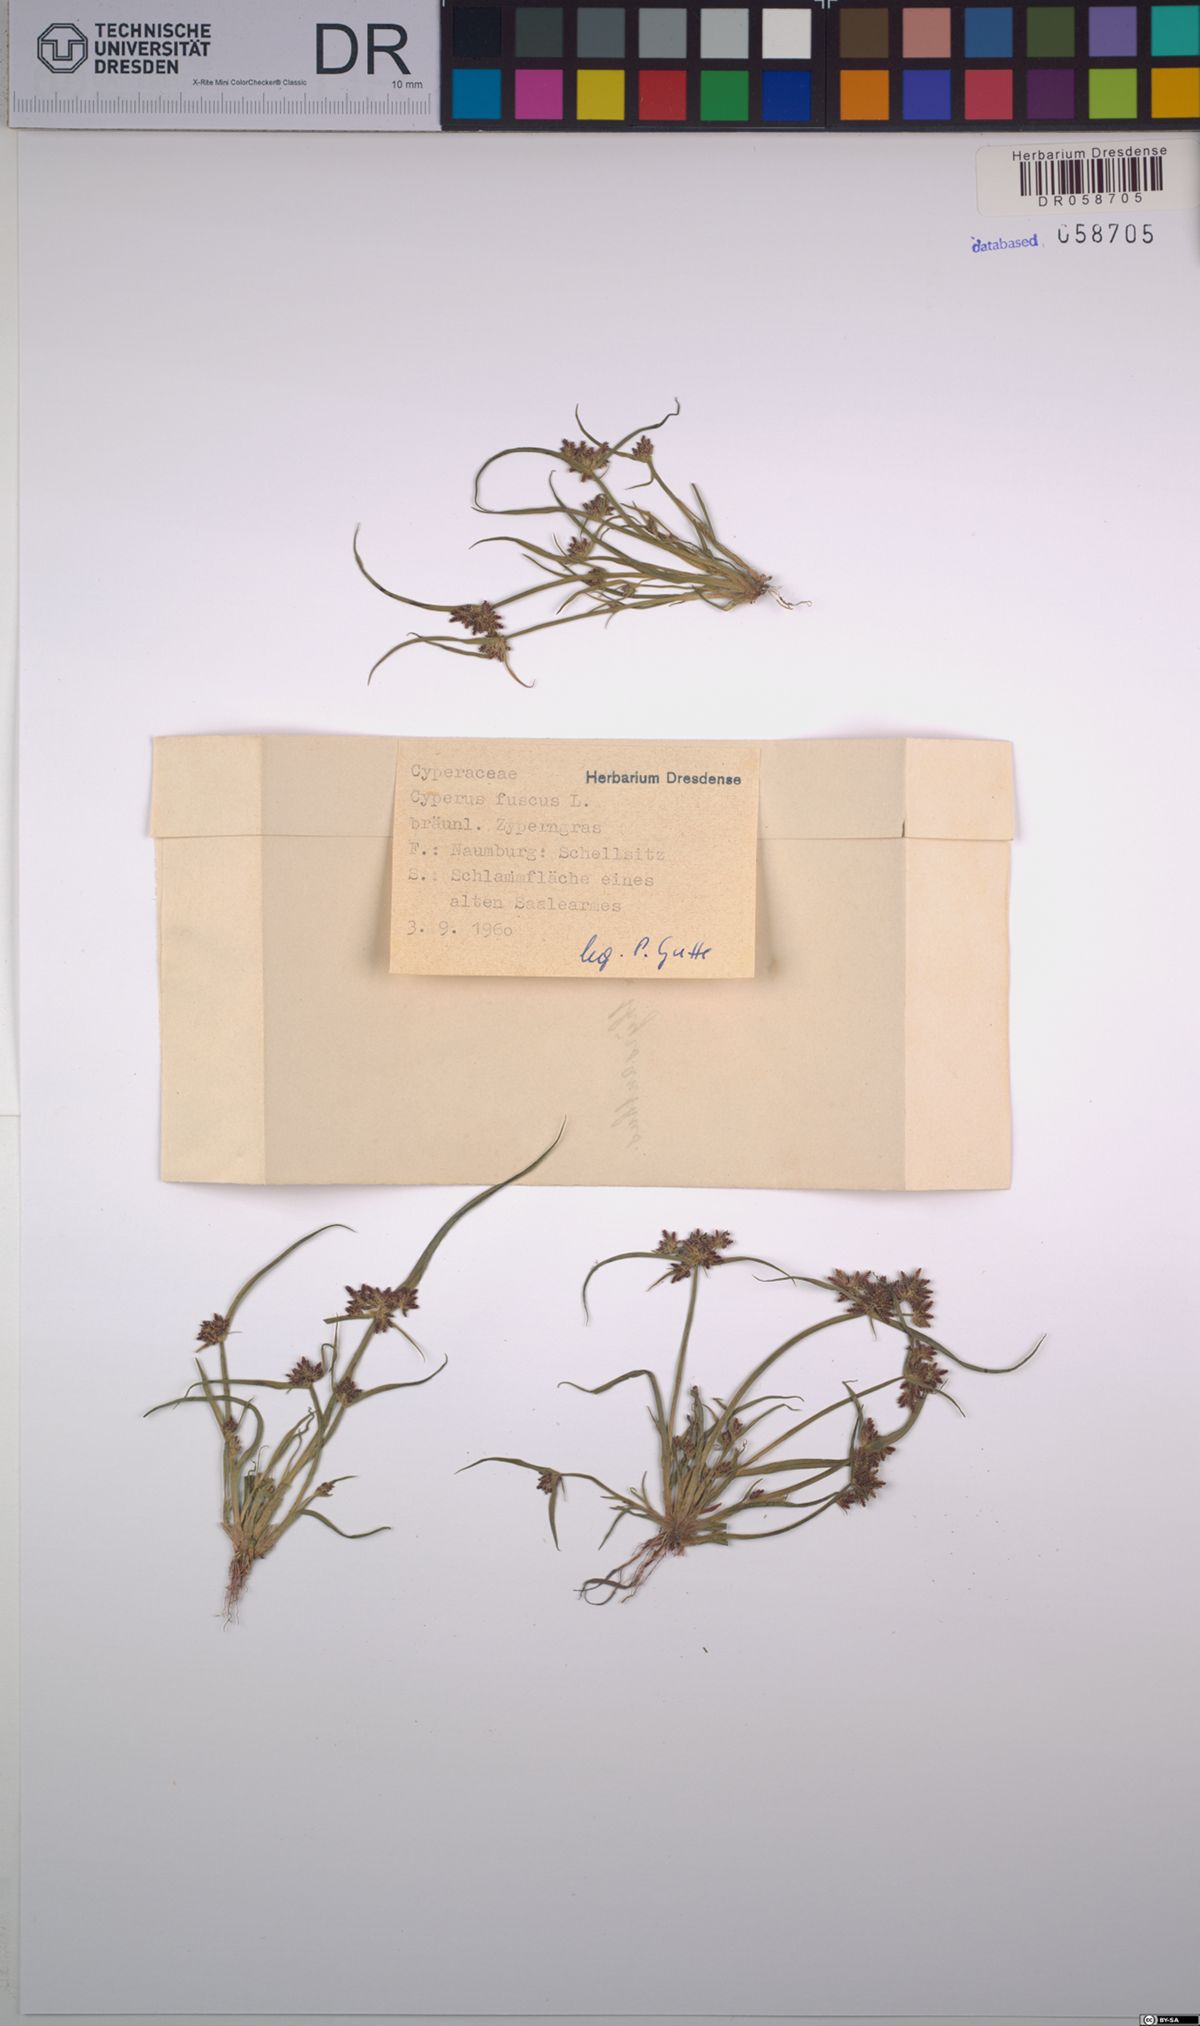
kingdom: Plantae
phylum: Tracheophyta
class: Liliopsida
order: Poales
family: Cyperaceae
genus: Cyperus
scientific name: Cyperus fuscus
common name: Brown galingale
